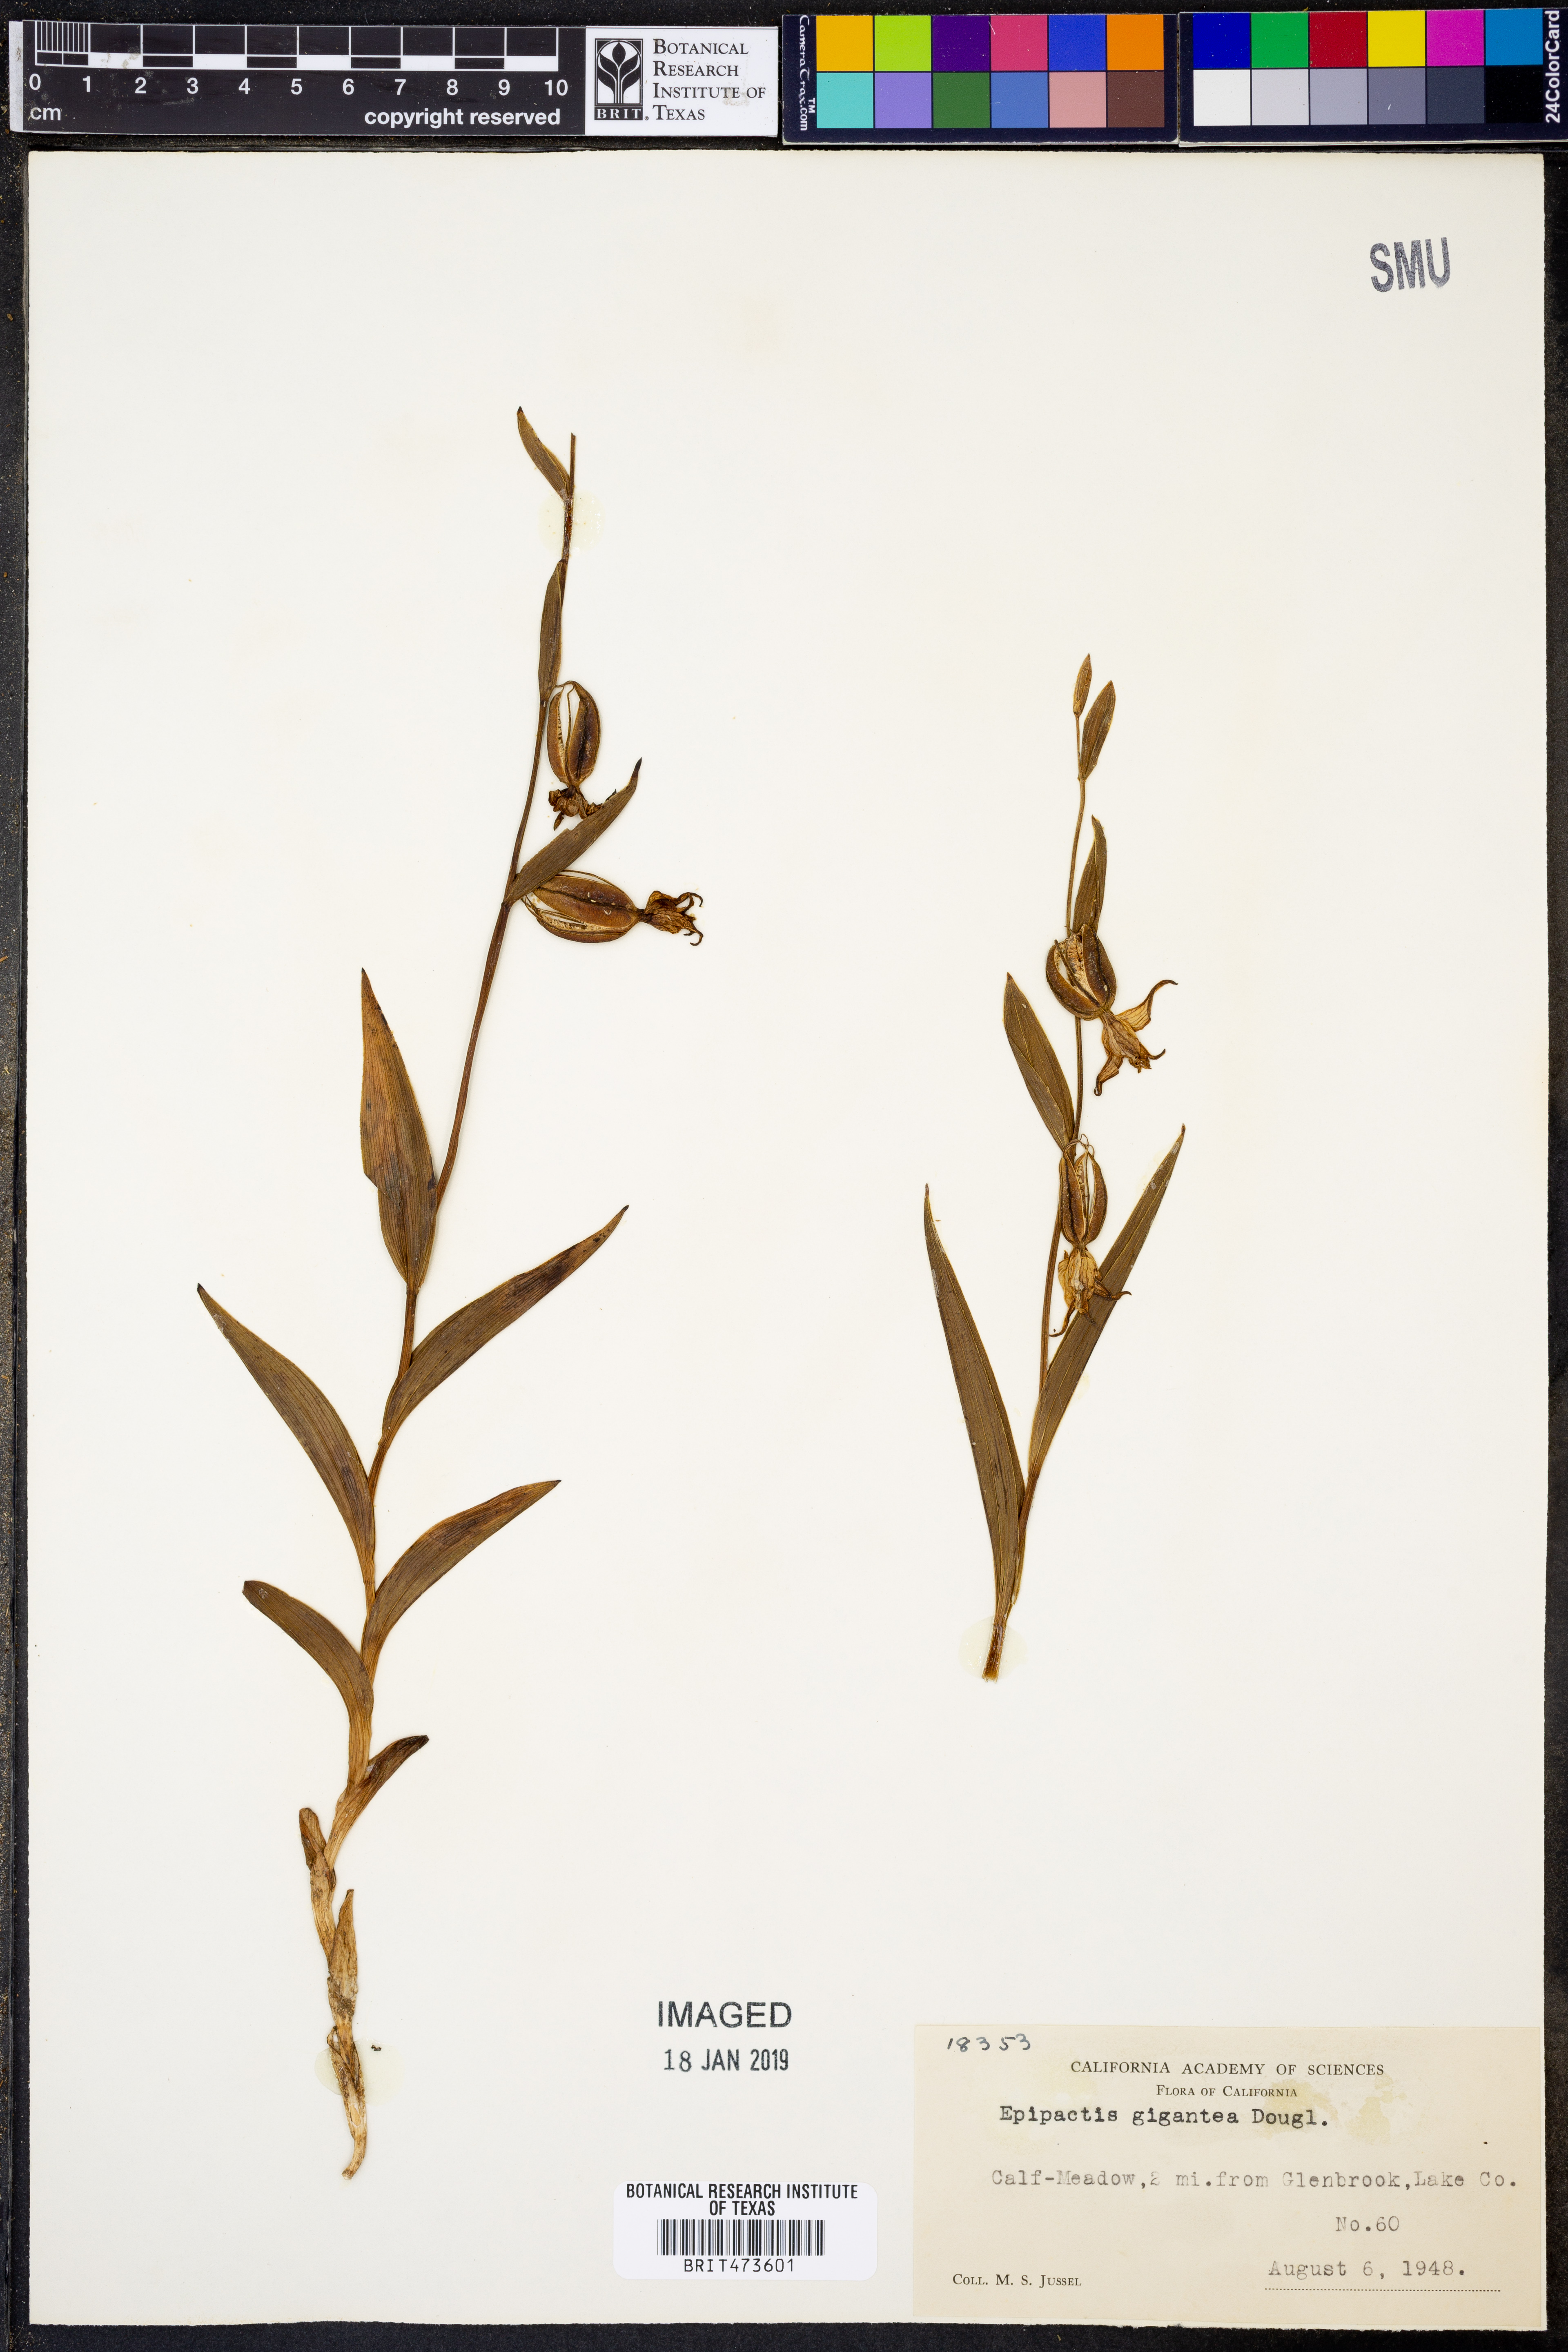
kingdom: Plantae
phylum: Tracheophyta
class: Liliopsida
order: Asparagales
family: Orchidaceae
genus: Epipactis
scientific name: Epipactis gigantea
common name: Chatterbox
